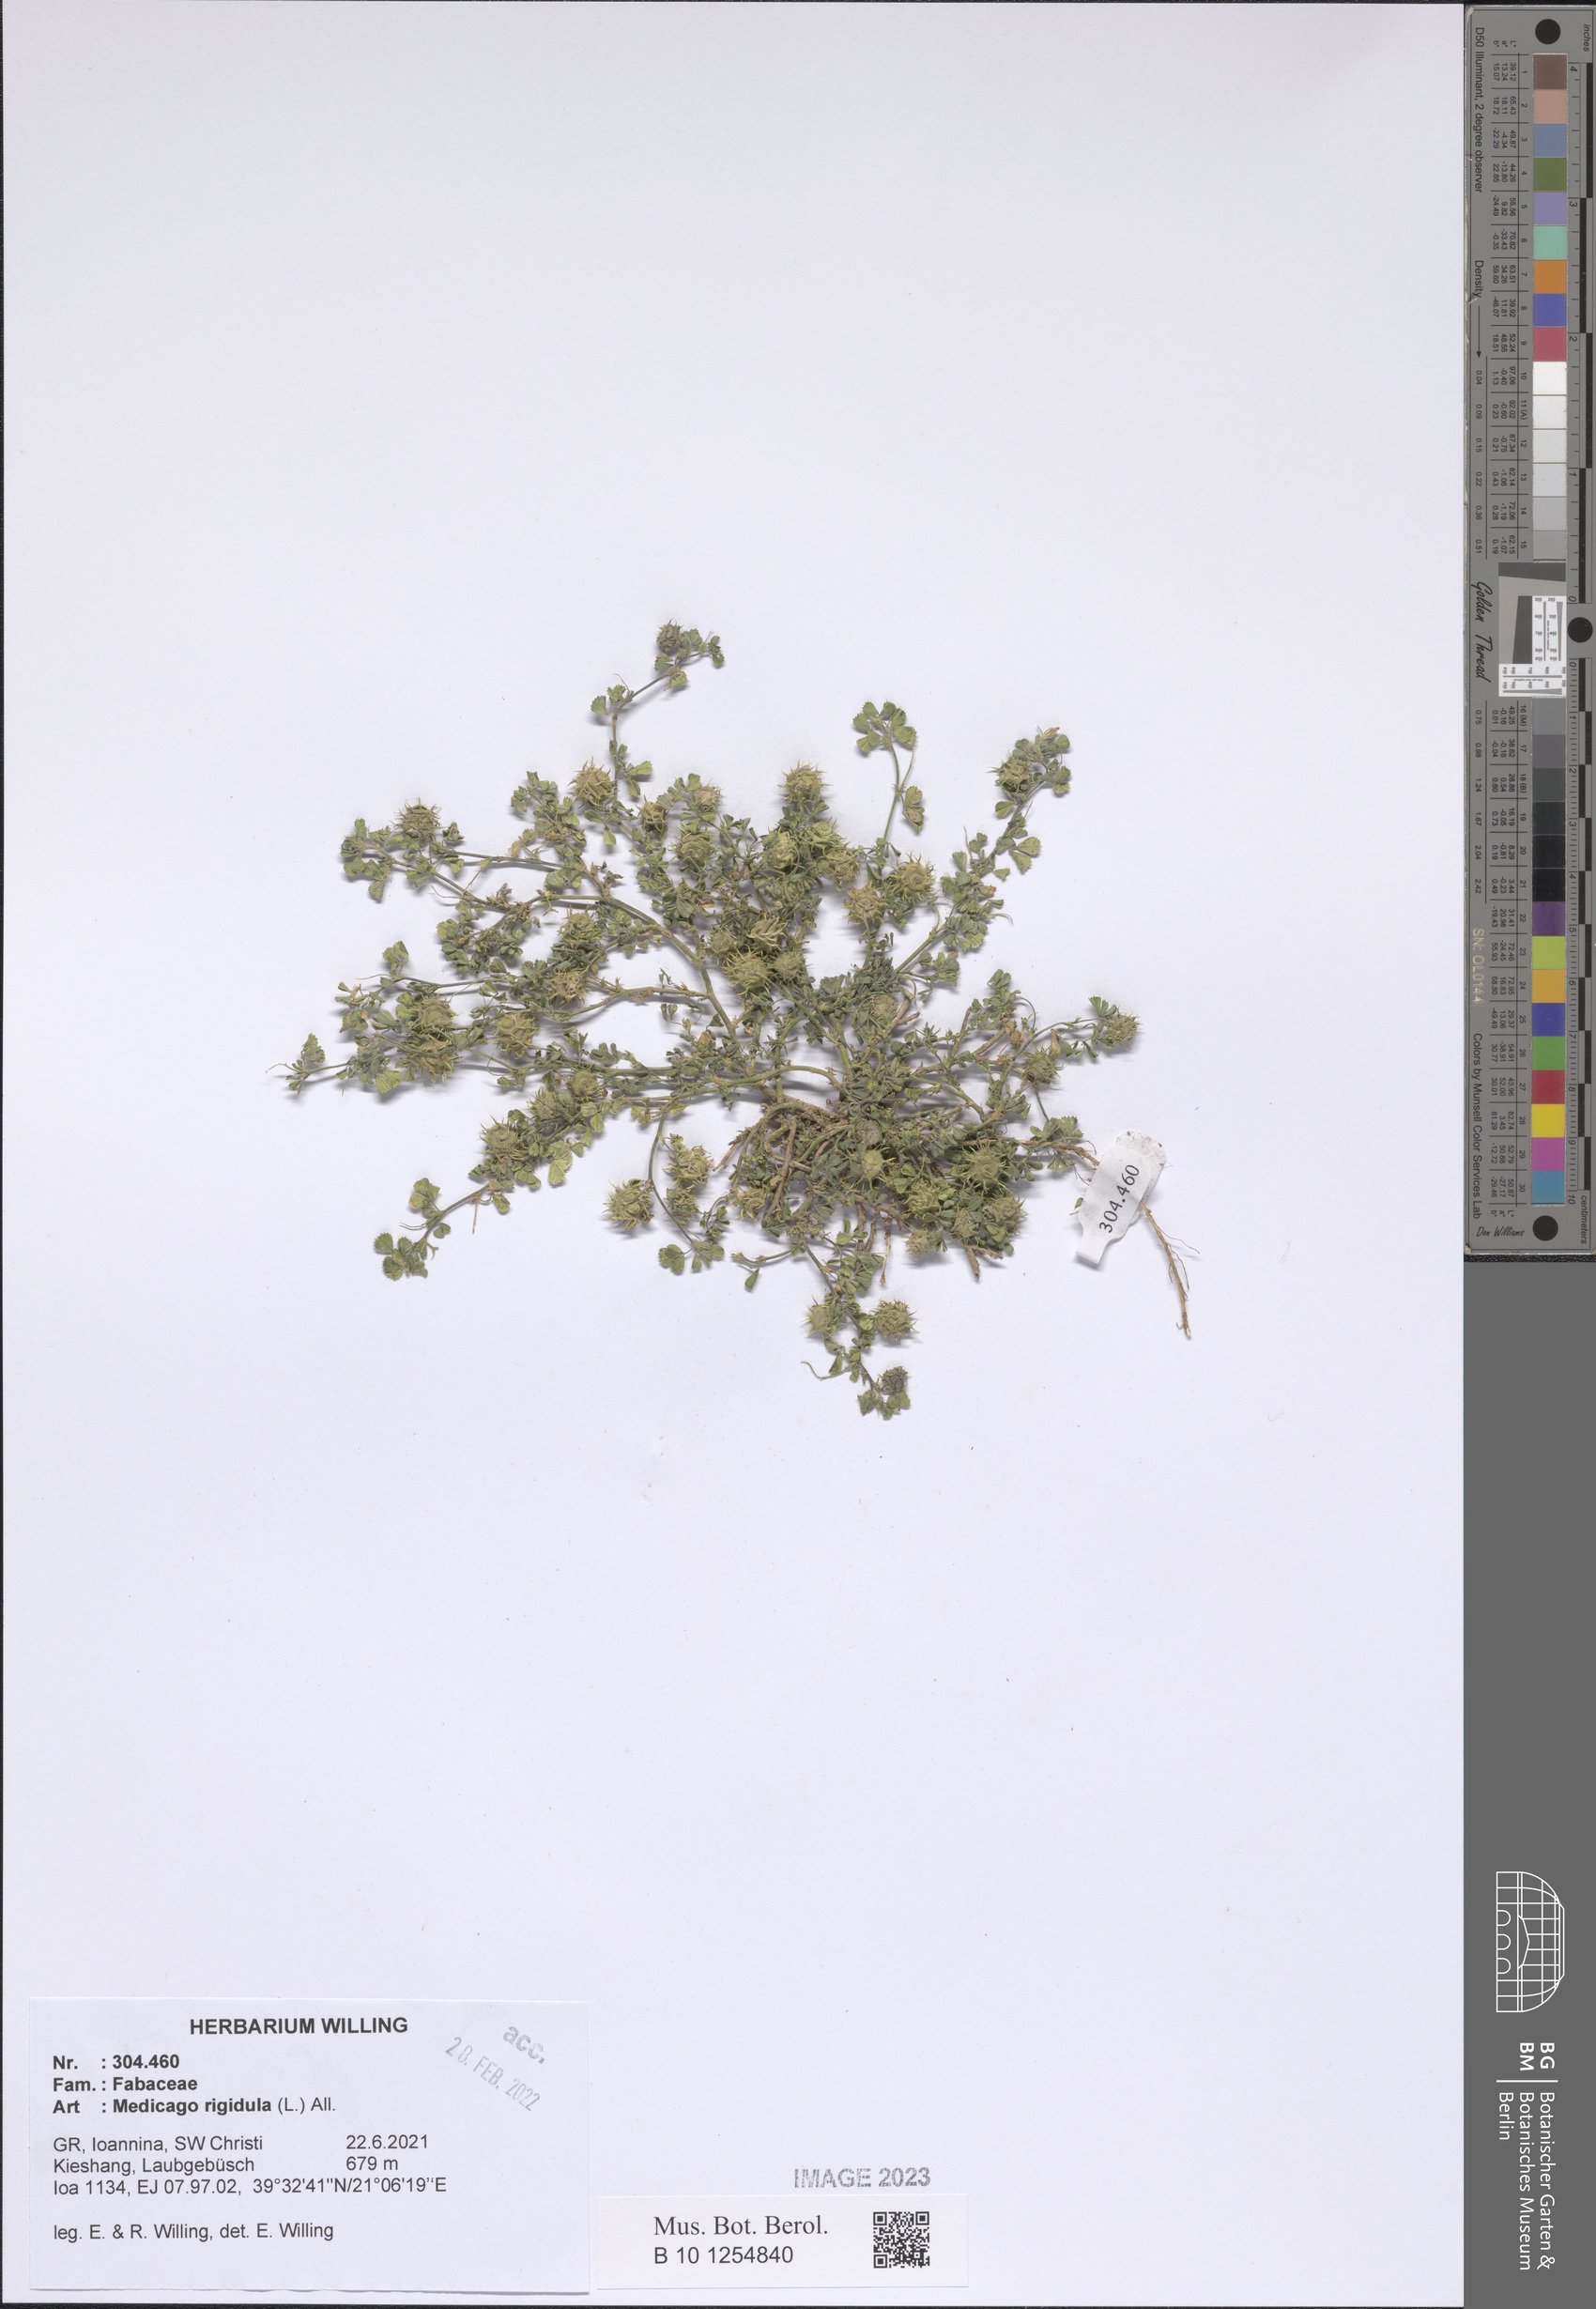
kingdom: Plantae
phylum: Tracheophyta
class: Magnoliopsida
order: Fabales
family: Fabaceae
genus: Medicago
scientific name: Medicago rigidula
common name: Tifton medic
